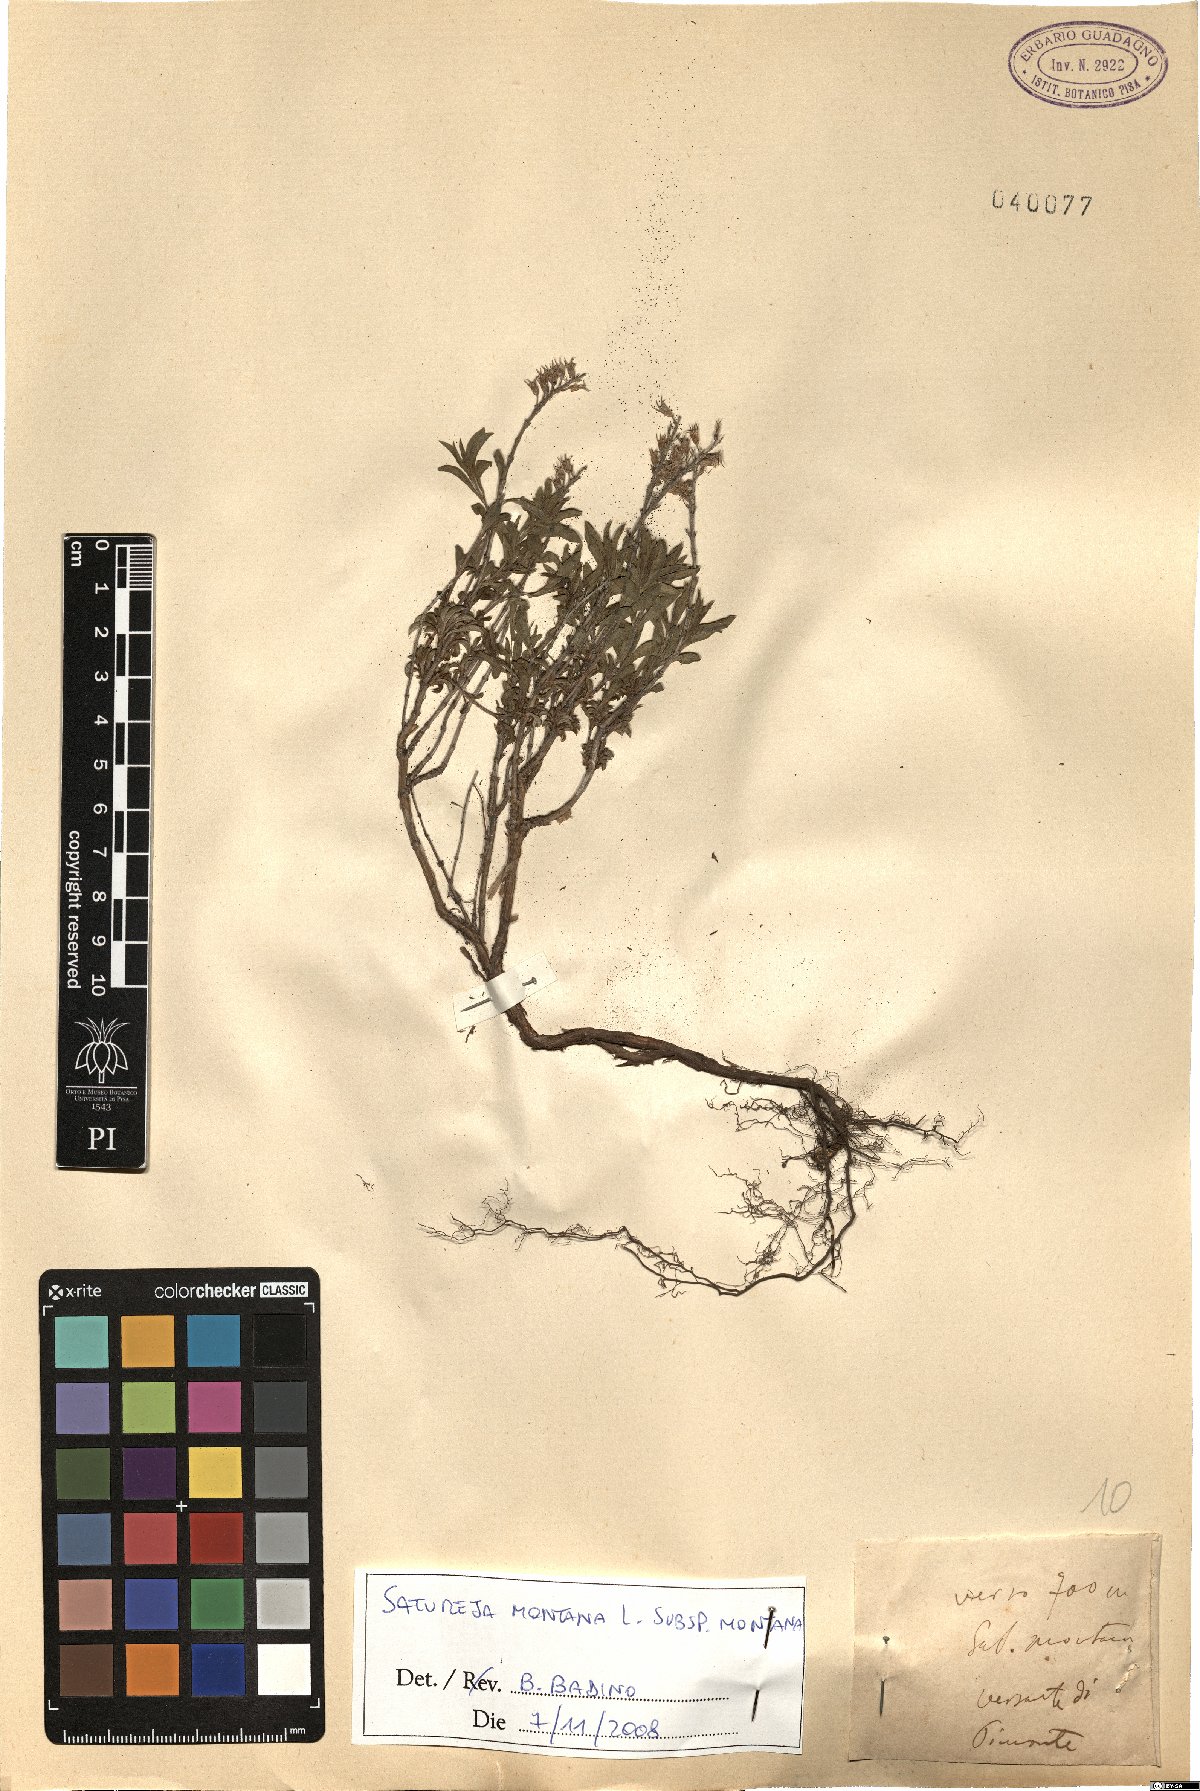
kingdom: Plantae
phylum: Tracheophyta
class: Magnoliopsida
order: Lamiales
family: Lamiaceae
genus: Satureja
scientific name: Satureja montana
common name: Winter savory
